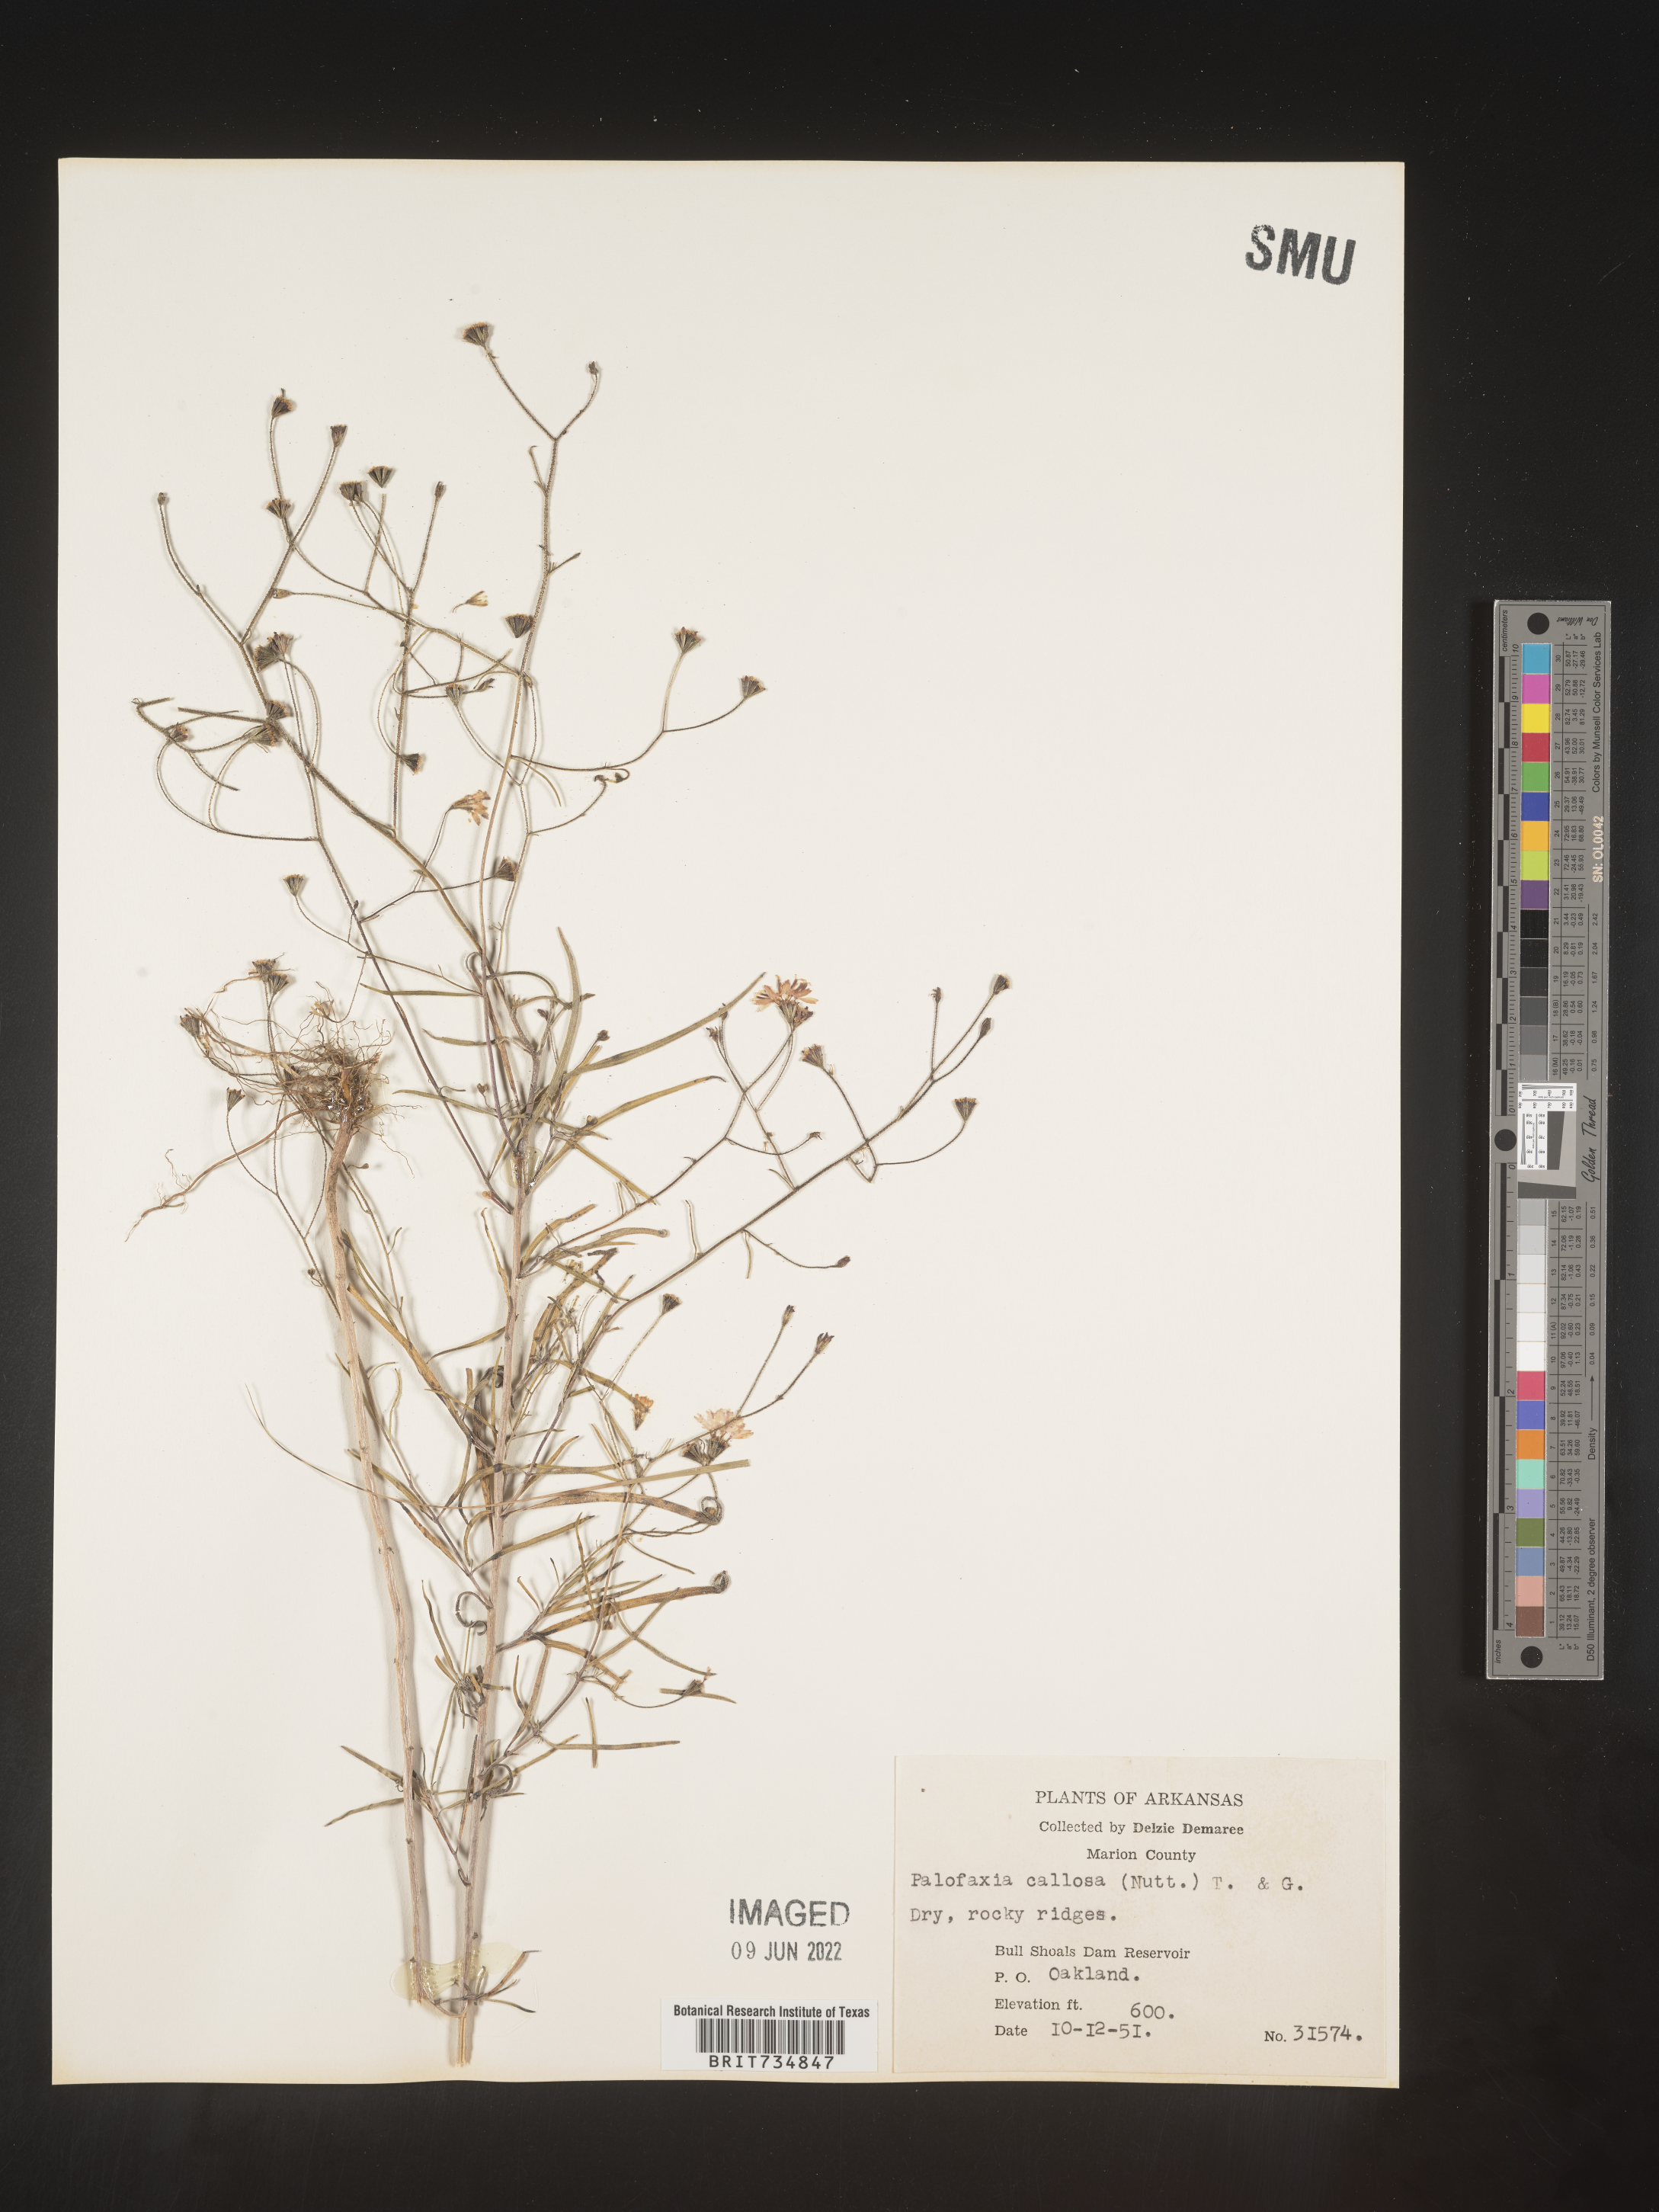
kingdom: Plantae
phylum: Tracheophyta
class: Magnoliopsida
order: Asterales
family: Asteraceae
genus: Palafoxia
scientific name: Palafoxia callosa
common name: Small palafox
